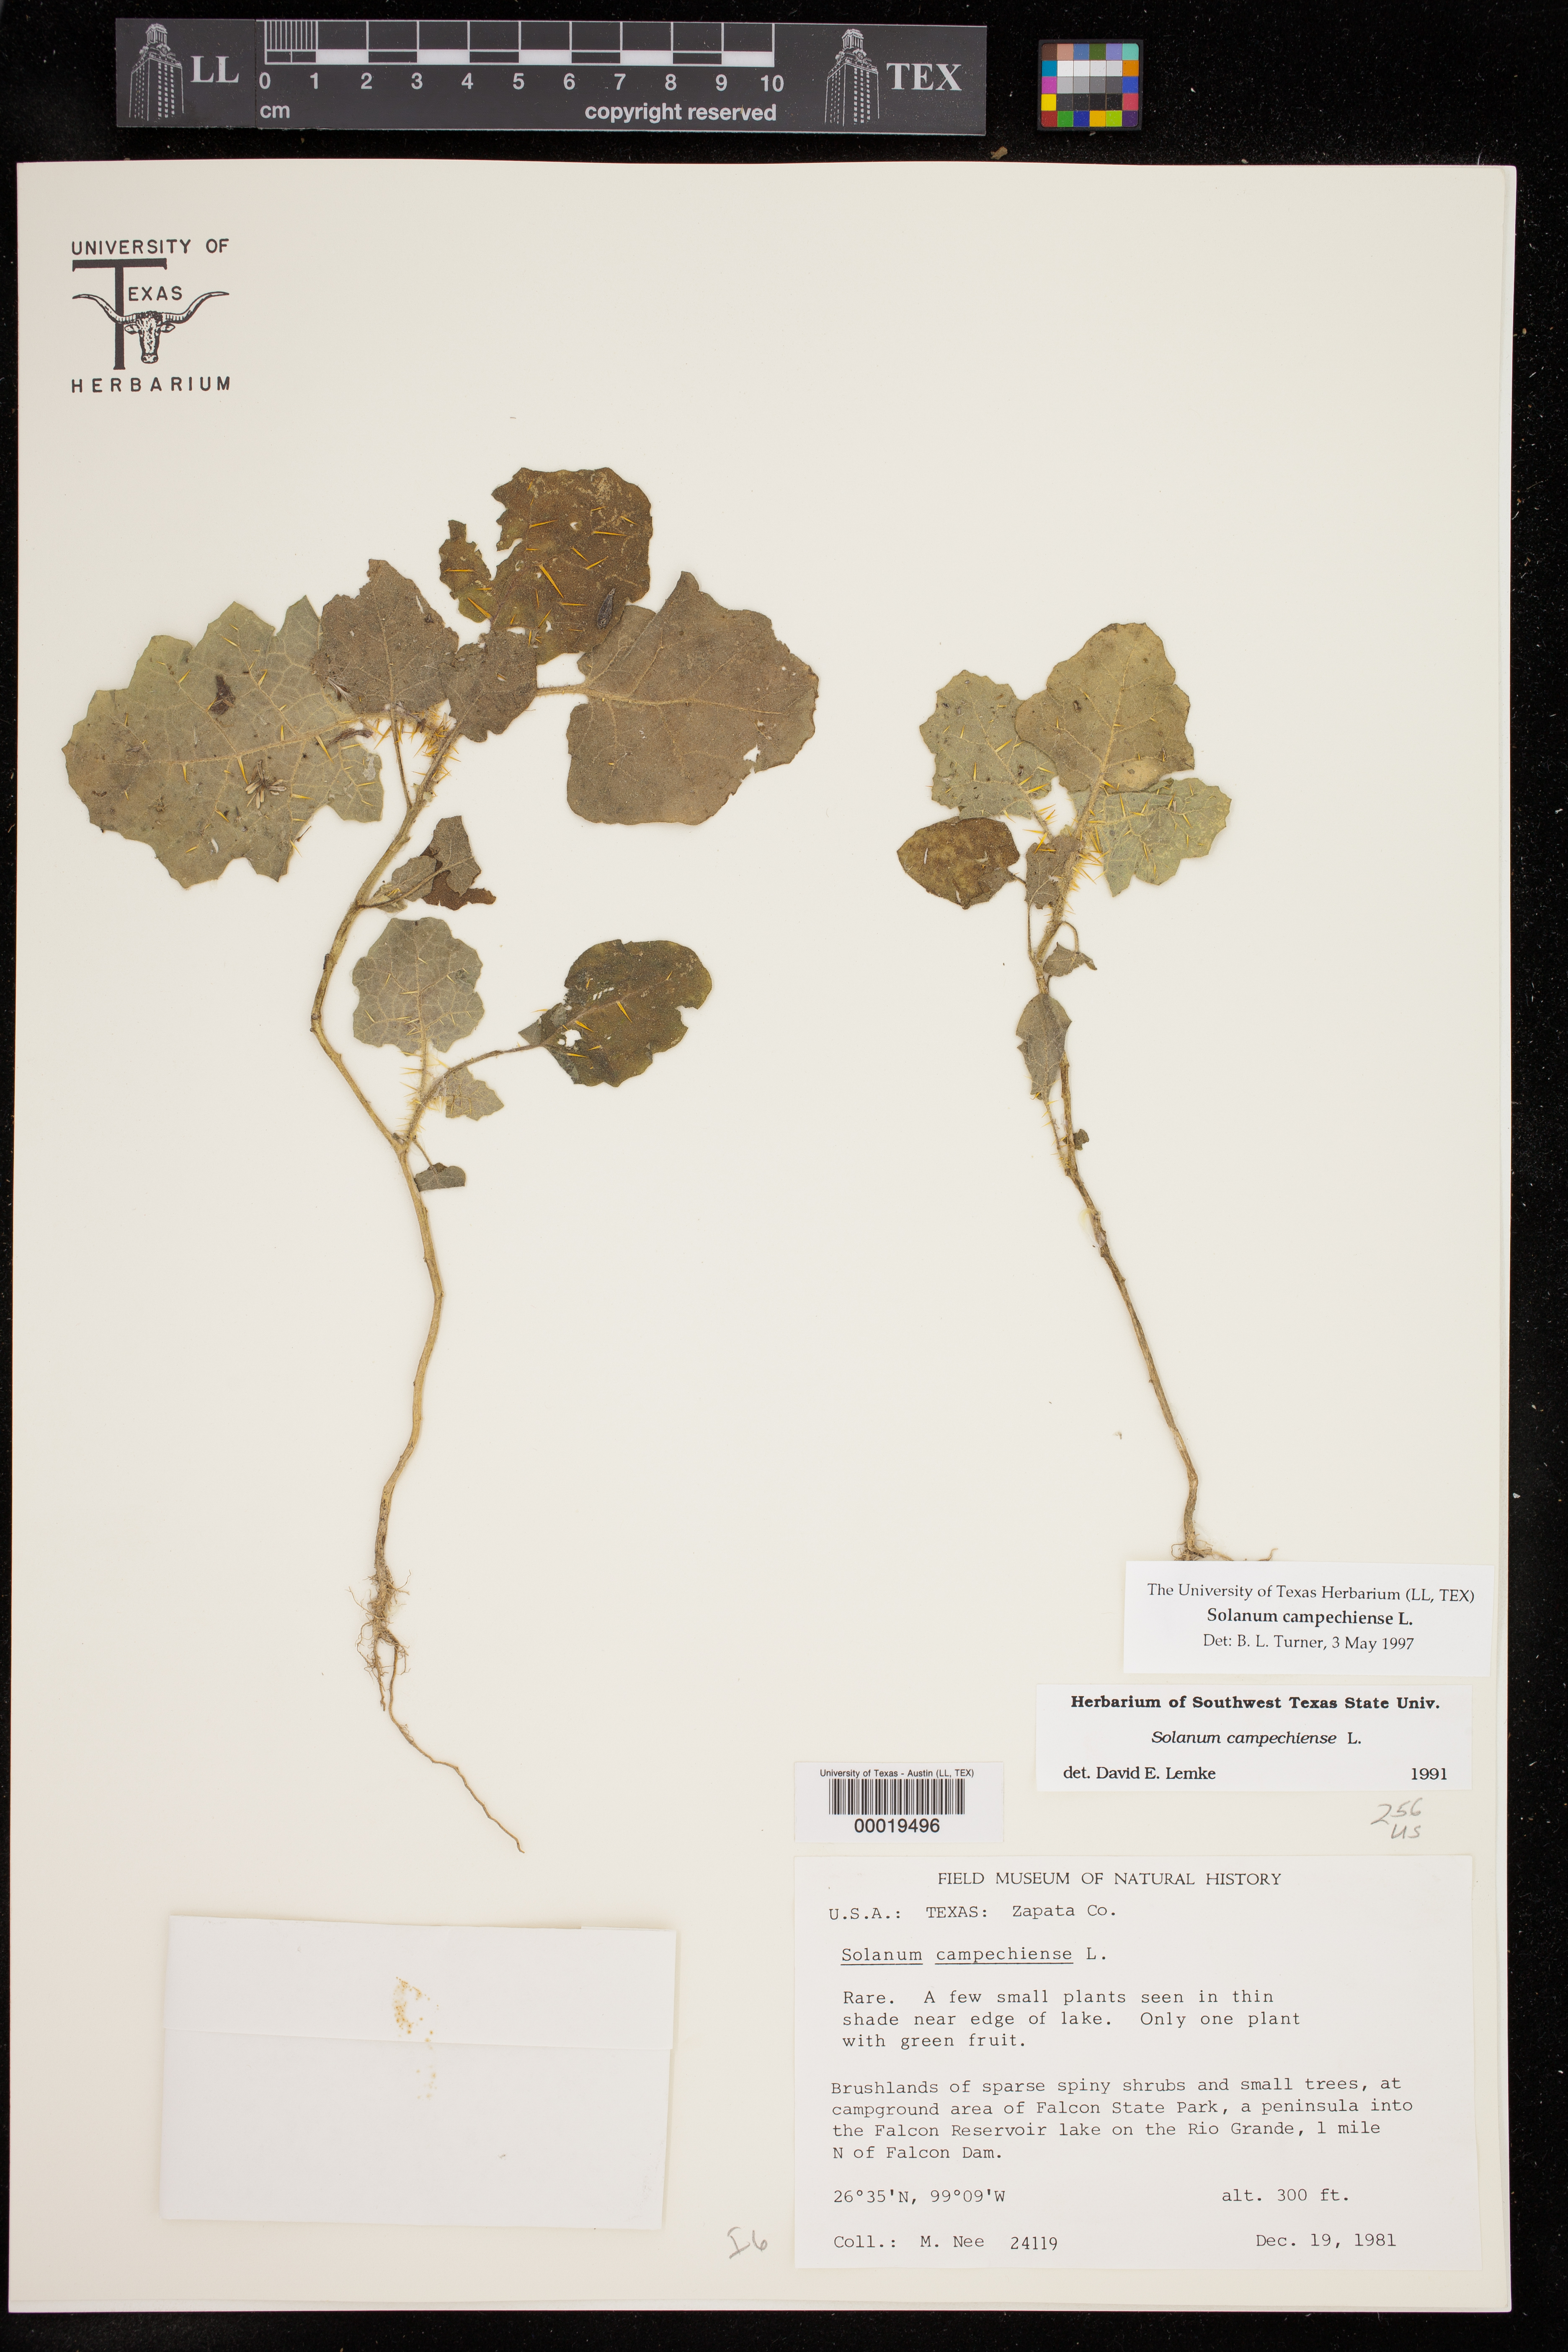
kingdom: Plantae
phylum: Tracheophyta
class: Magnoliopsida
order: Solanales
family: Solanaceae
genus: Solanum
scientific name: Solanum campechiense
